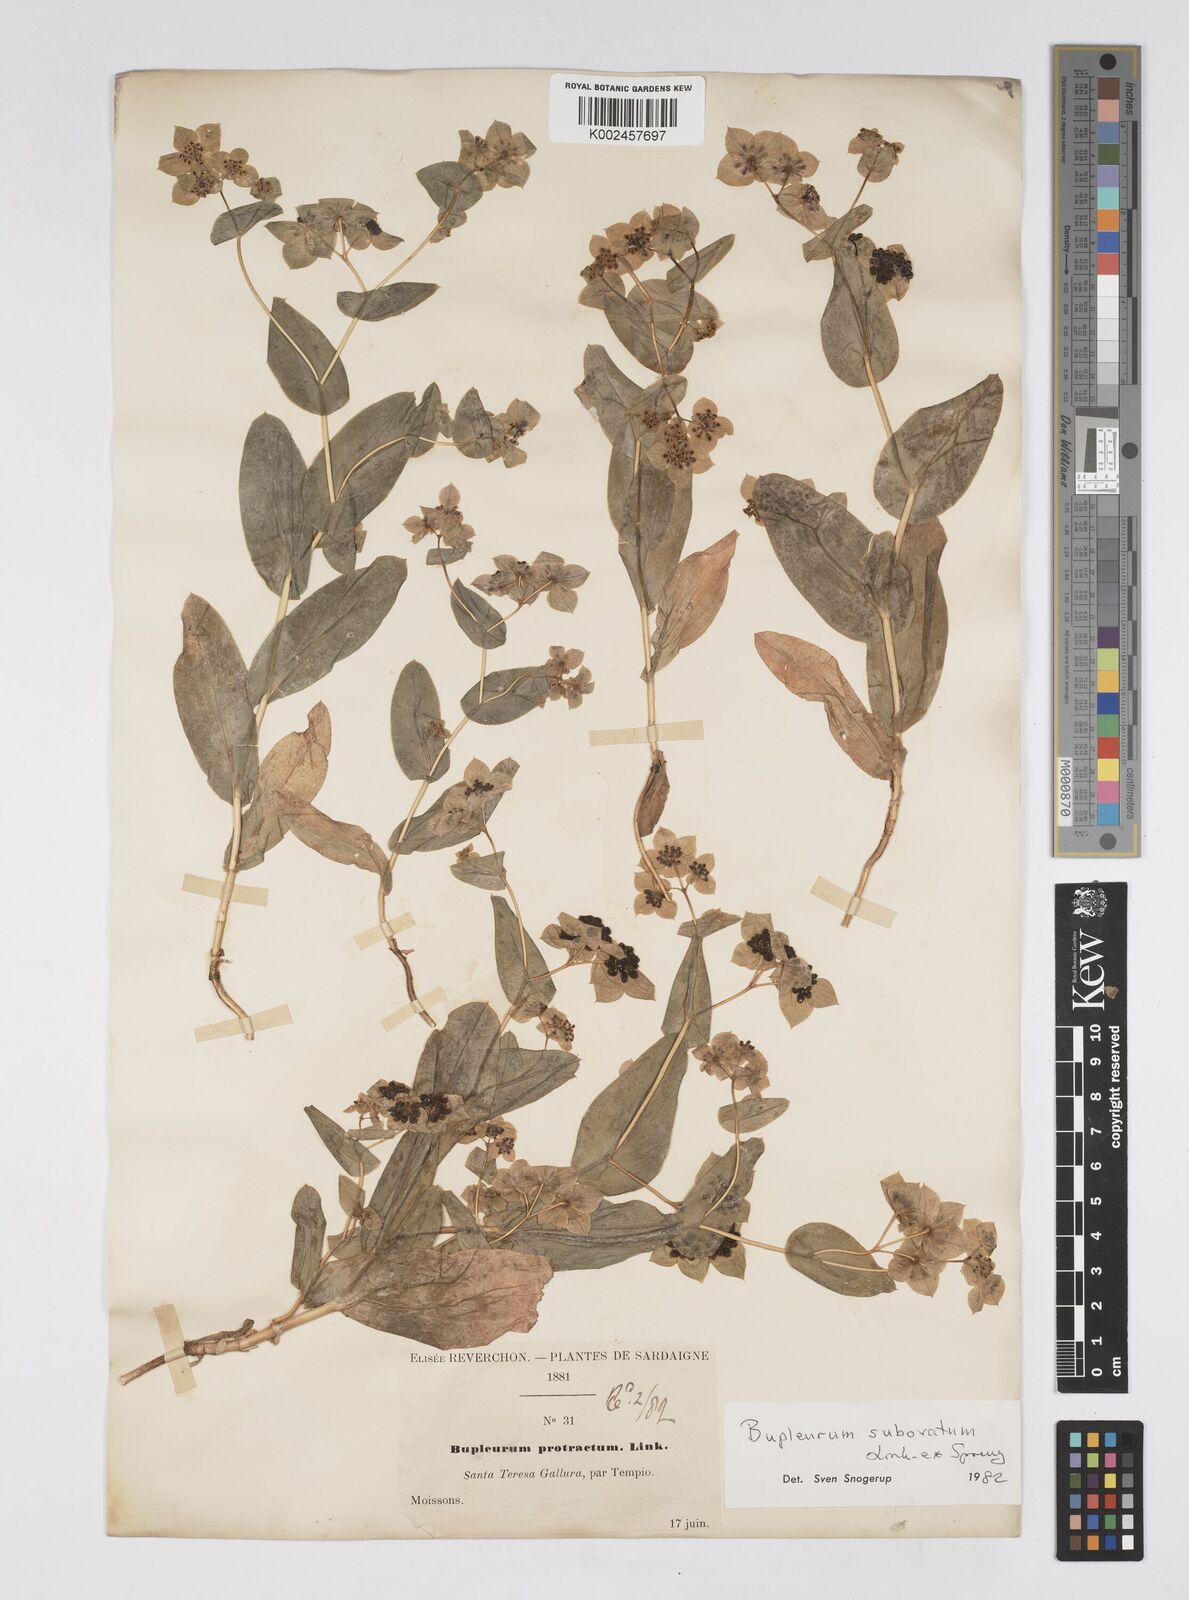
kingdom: Plantae
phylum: Tracheophyta
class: Magnoliopsida
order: Apiales
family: Apiaceae
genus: Bupleurum
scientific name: Bupleurum lancifolium
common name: False thorow-wax
